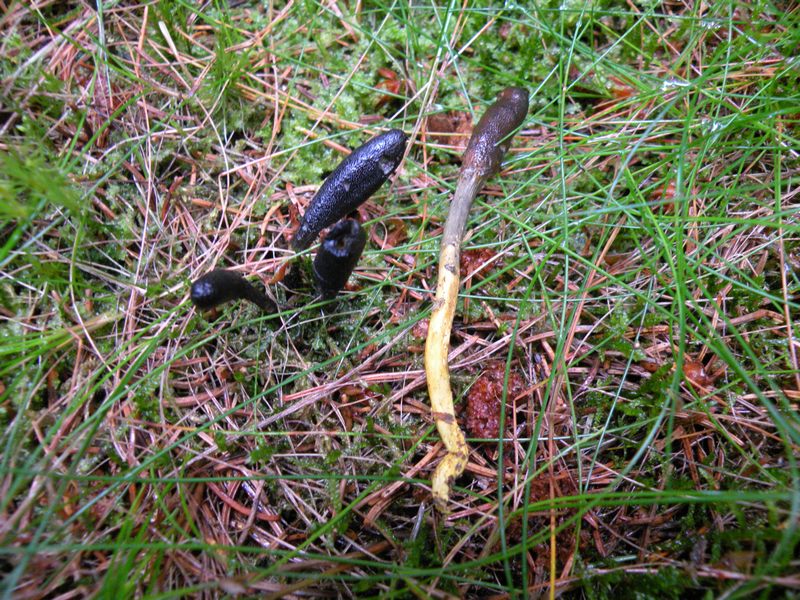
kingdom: Fungi
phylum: Ascomycota
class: Sordariomycetes
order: Hypocreales
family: Ophiocordycipitaceae
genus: Tolypocladium
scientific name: Tolypocladium ophioglossoides
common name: slank snyltekølle
